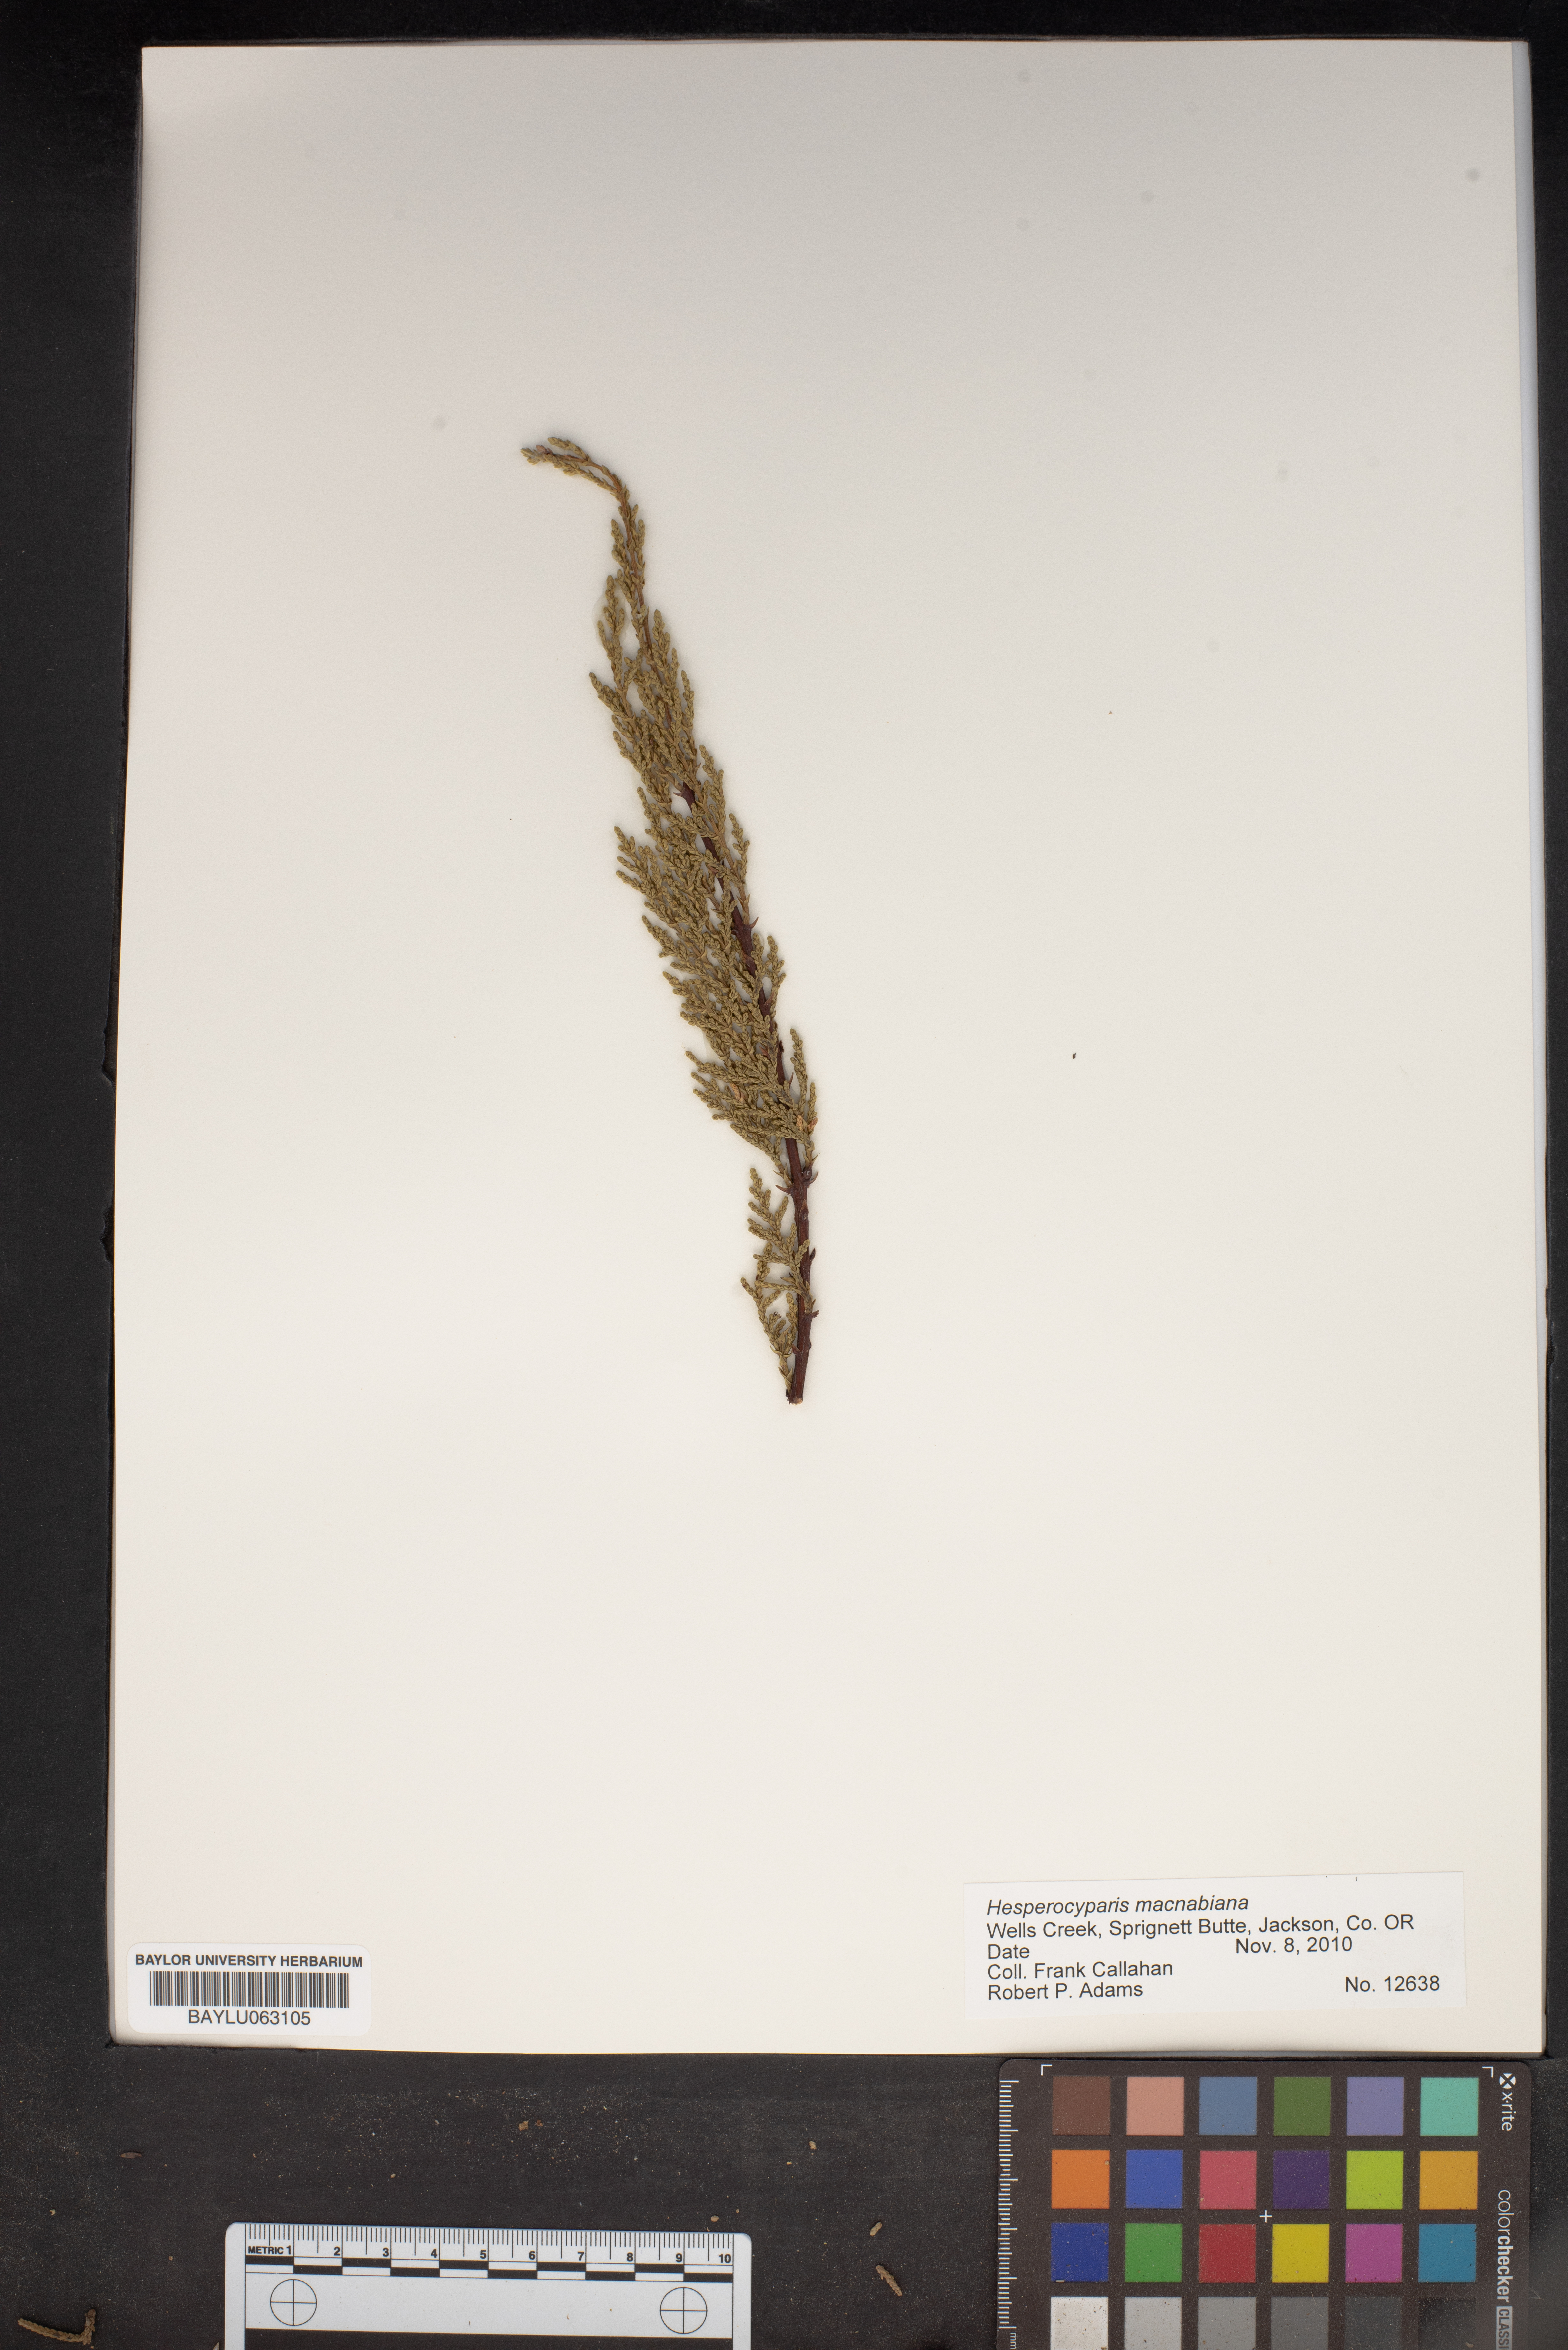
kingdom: Plantae
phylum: Tracheophyta
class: Pinopsida
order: Pinales
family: Cupressaceae
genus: Cupressus
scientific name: Cupressus macnabiana bis
